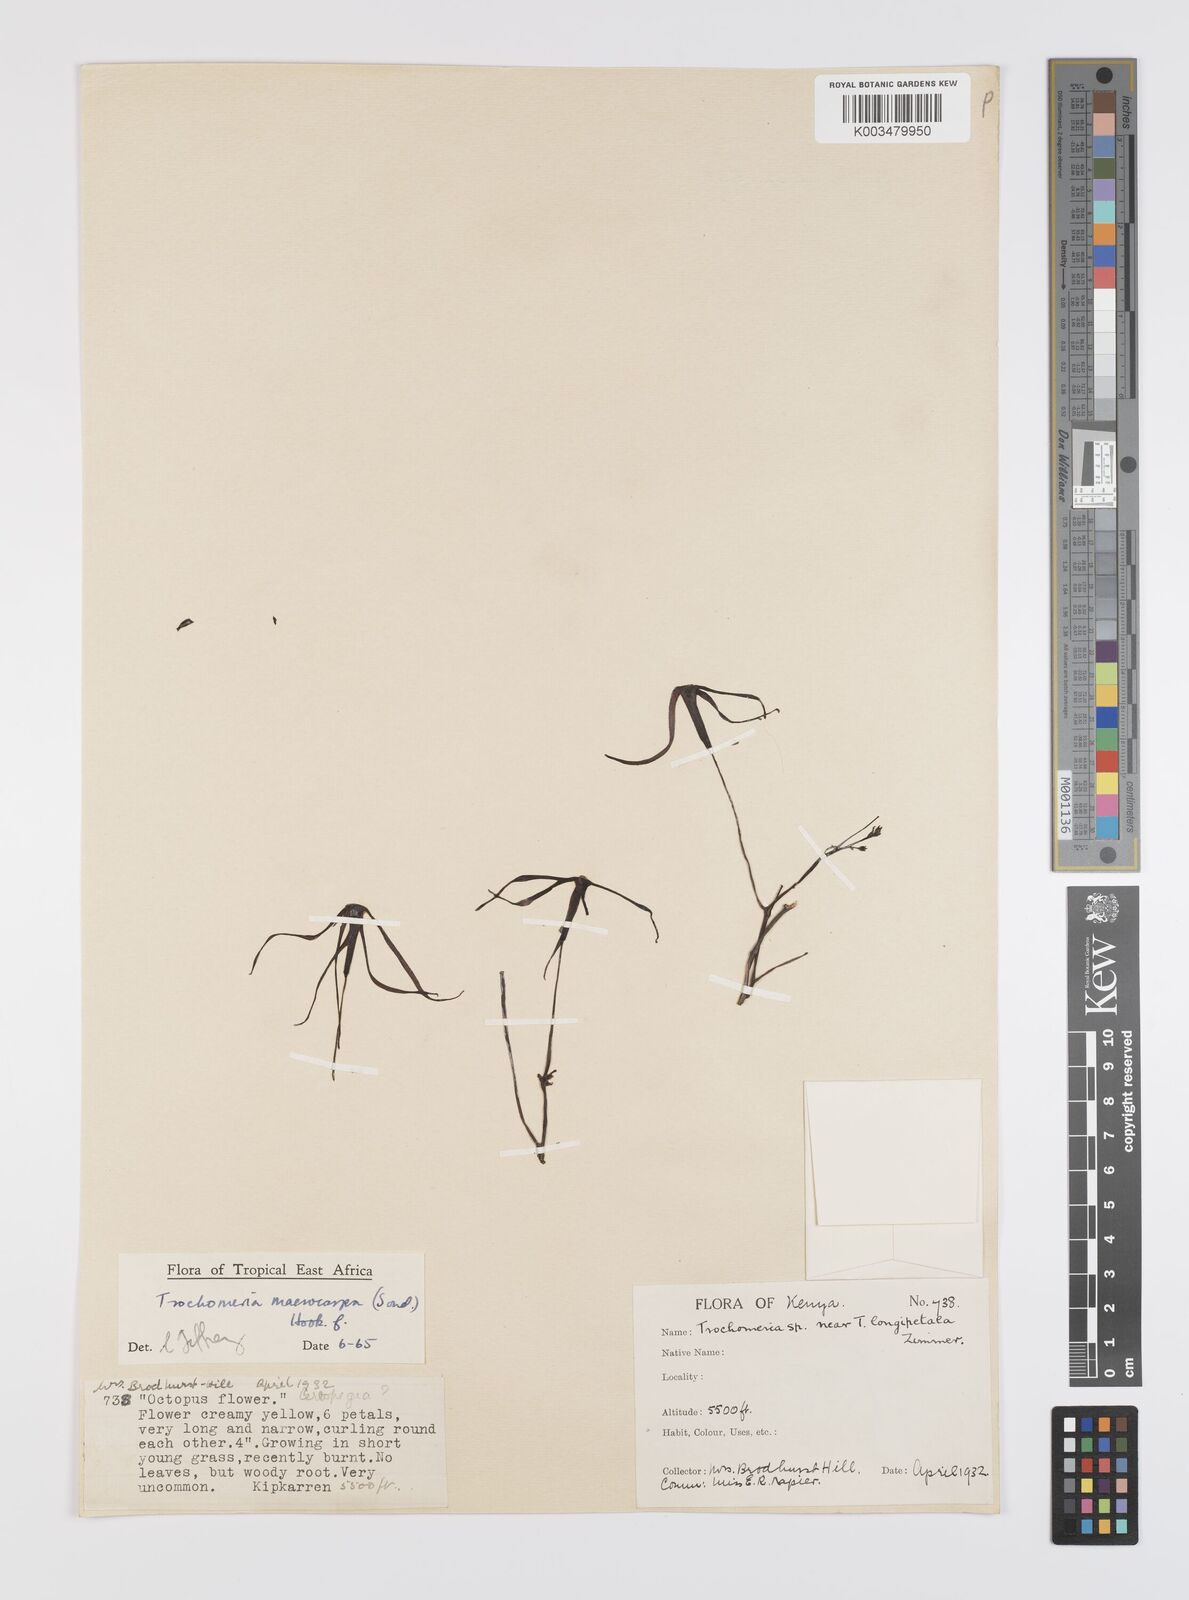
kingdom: Plantae
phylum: Tracheophyta
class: Magnoliopsida
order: Cucurbitales
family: Cucurbitaceae
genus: Trochomeria
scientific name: Trochomeria macrocarpa
